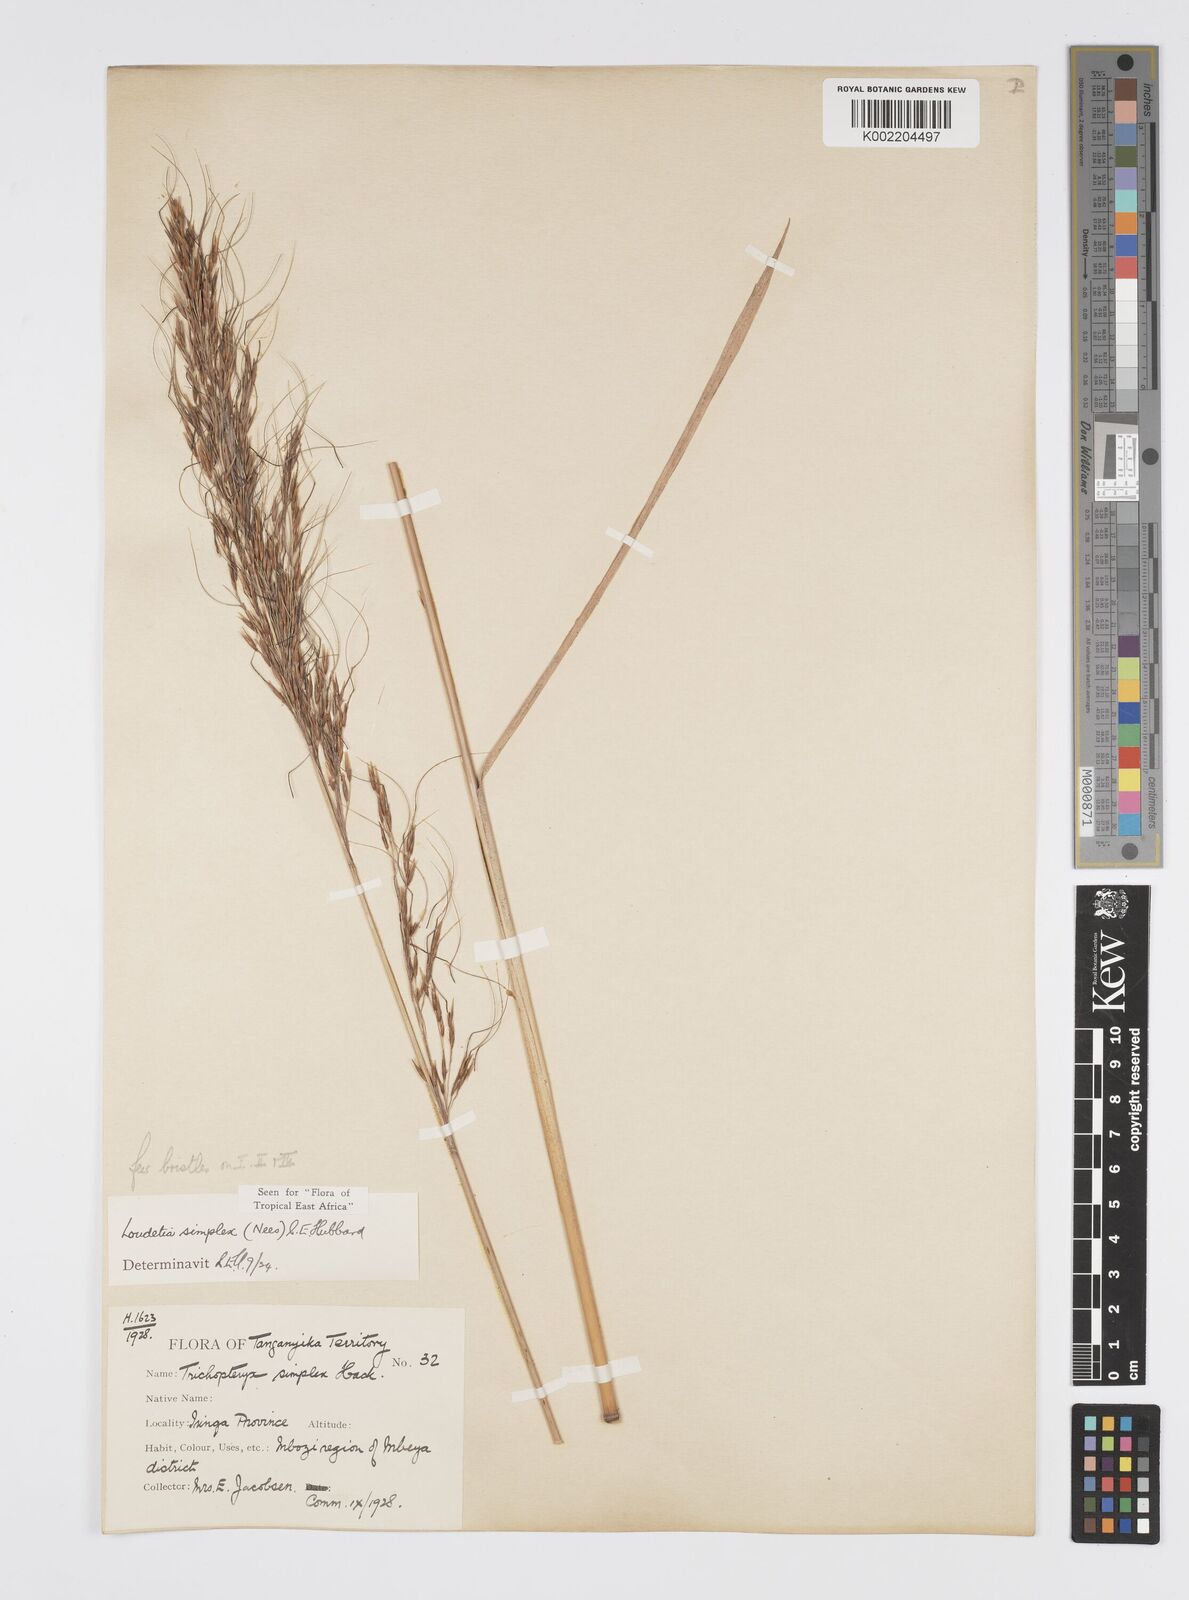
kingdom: Plantae
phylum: Tracheophyta
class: Liliopsida
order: Poales
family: Poaceae
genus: Loudetia
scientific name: Loudetia simplex
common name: Common russet grass
